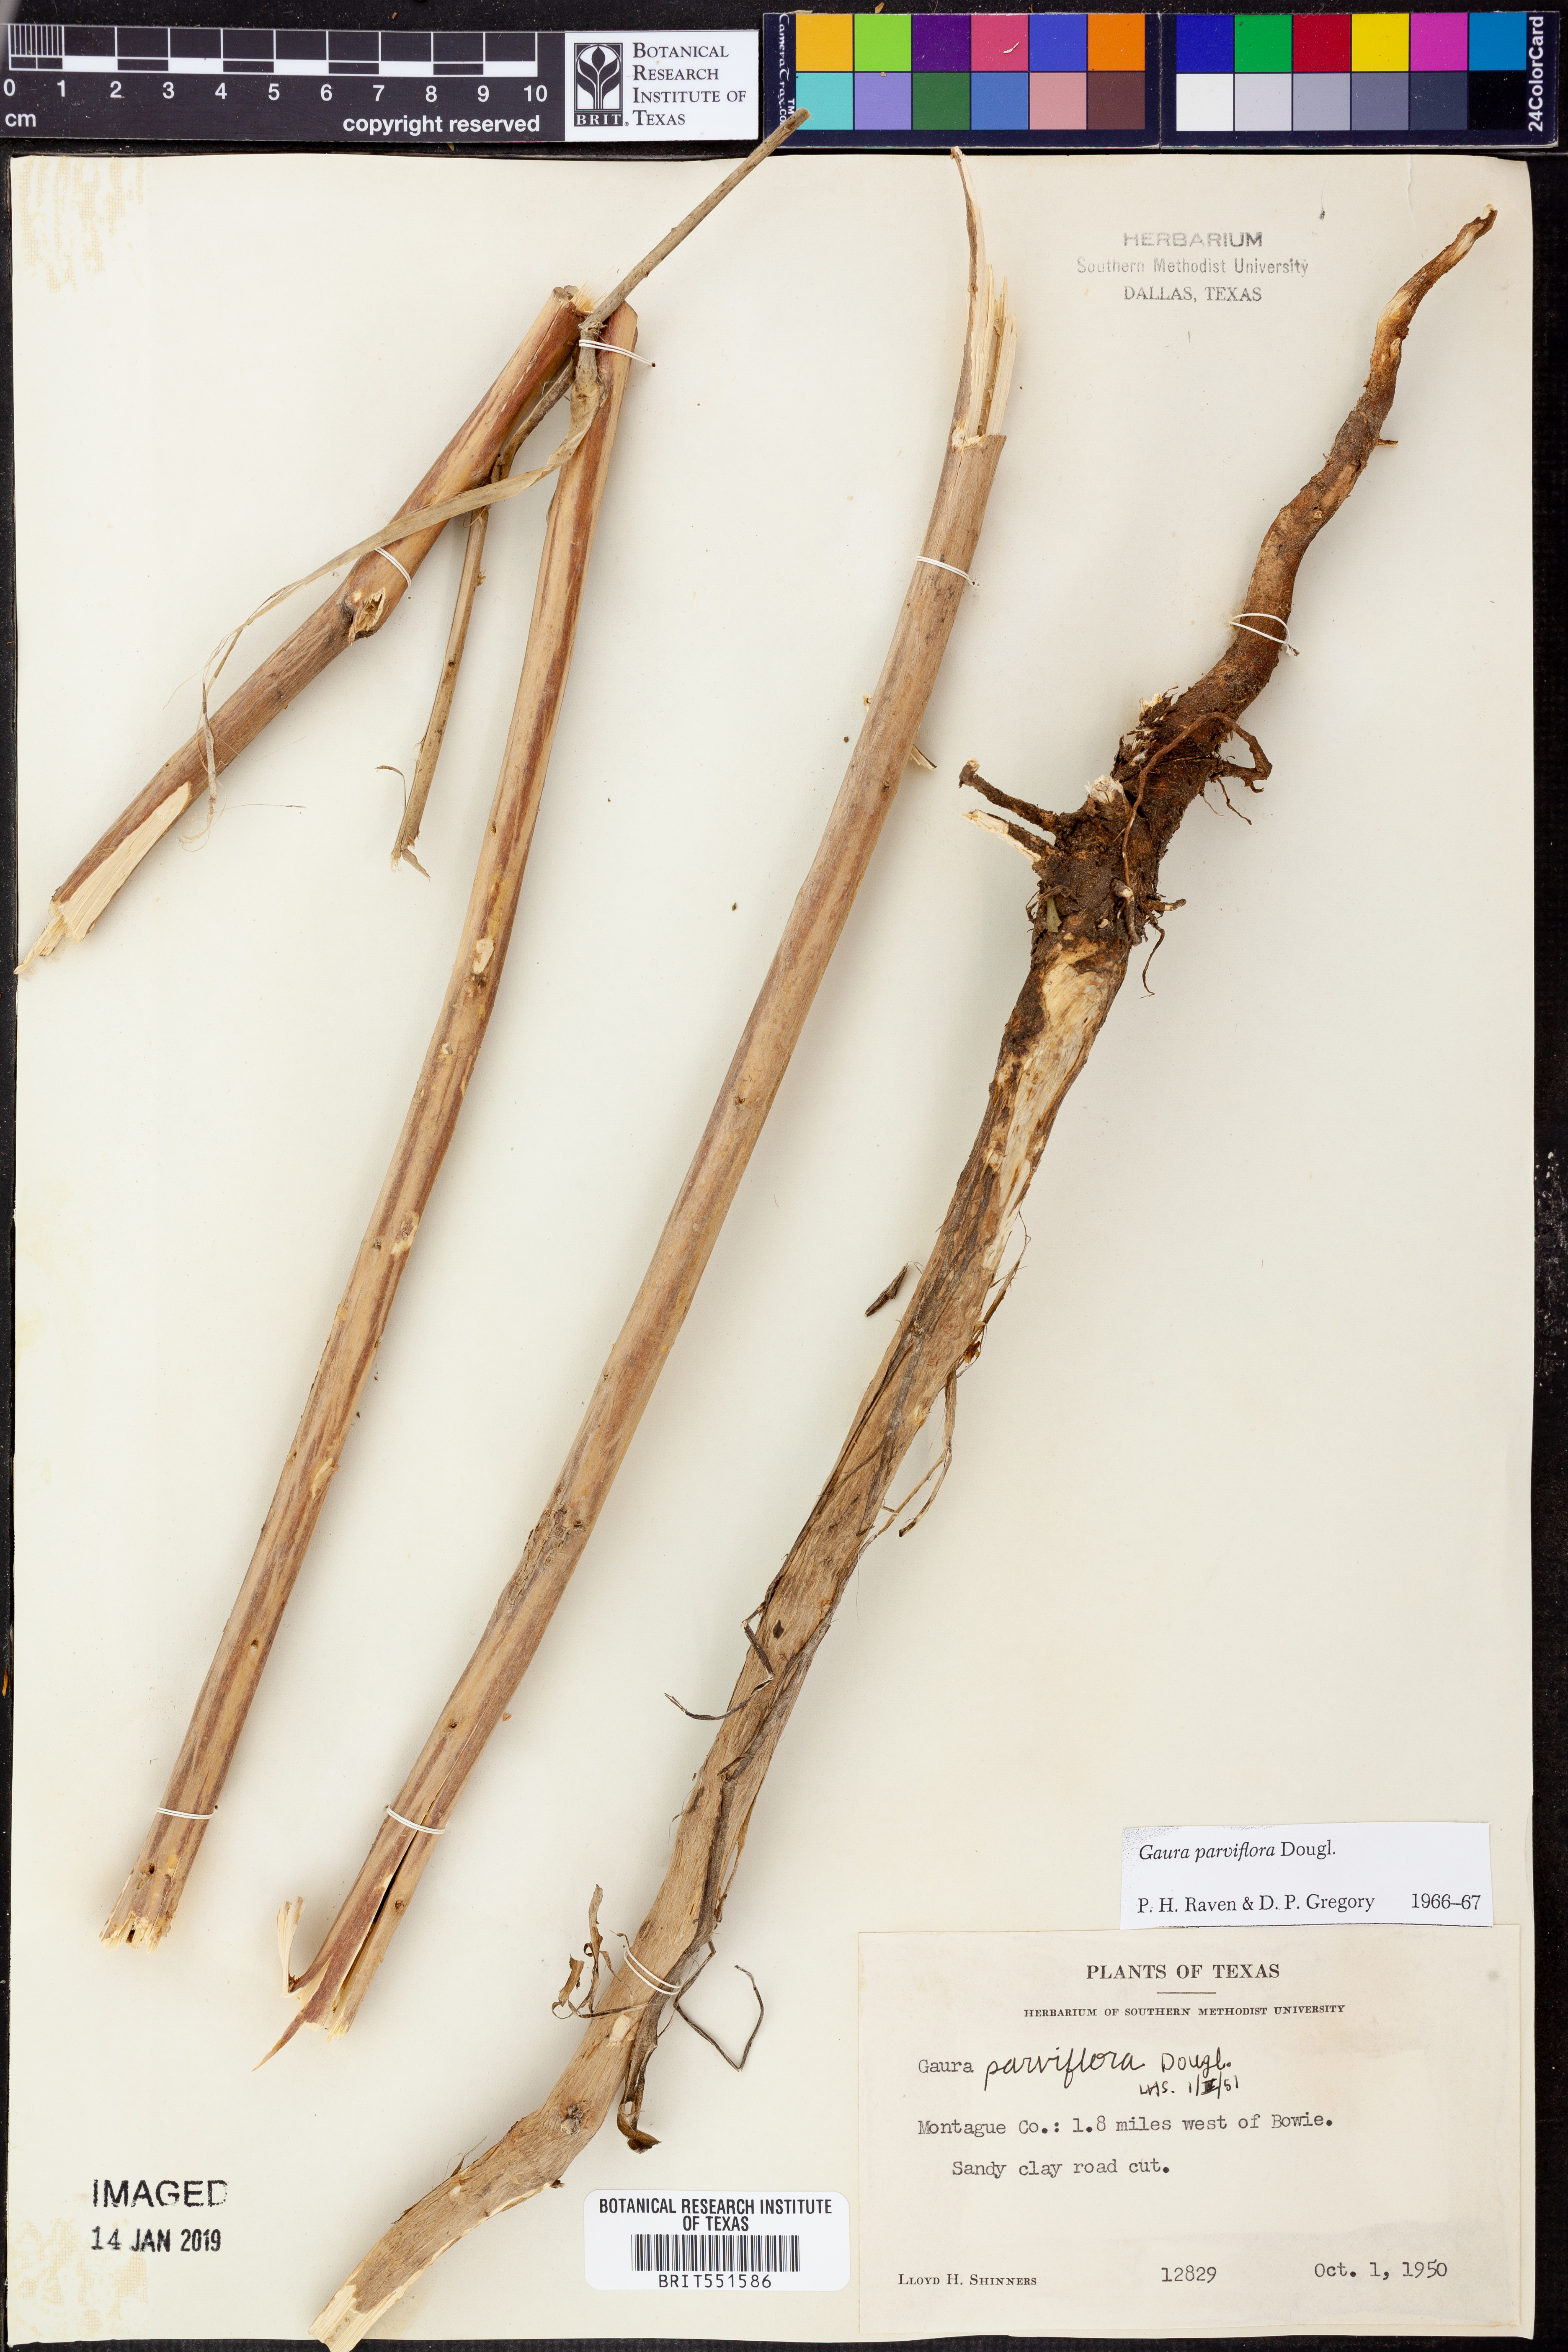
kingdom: Plantae
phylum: Tracheophyta
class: Magnoliopsida
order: Myrtales
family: Onagraceae
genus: Oenothera
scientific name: Oenothera curtiflora
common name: Velvetweed
